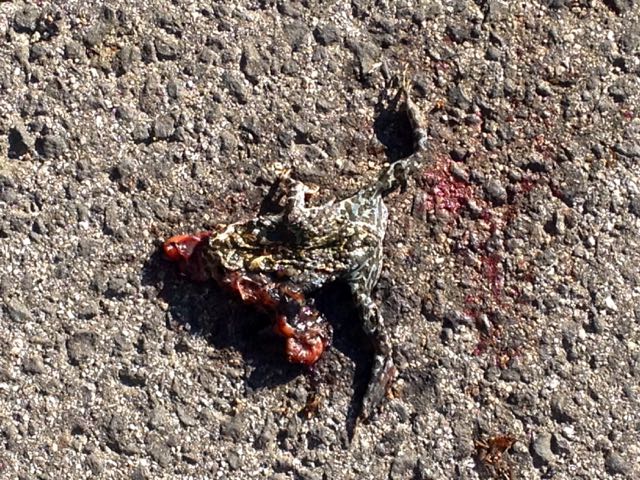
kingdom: Animalia
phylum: Chordata
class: Amphibia
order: Anura
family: Bufonidae
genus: Bufotes
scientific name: Bufotes viridis
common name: European green toad
